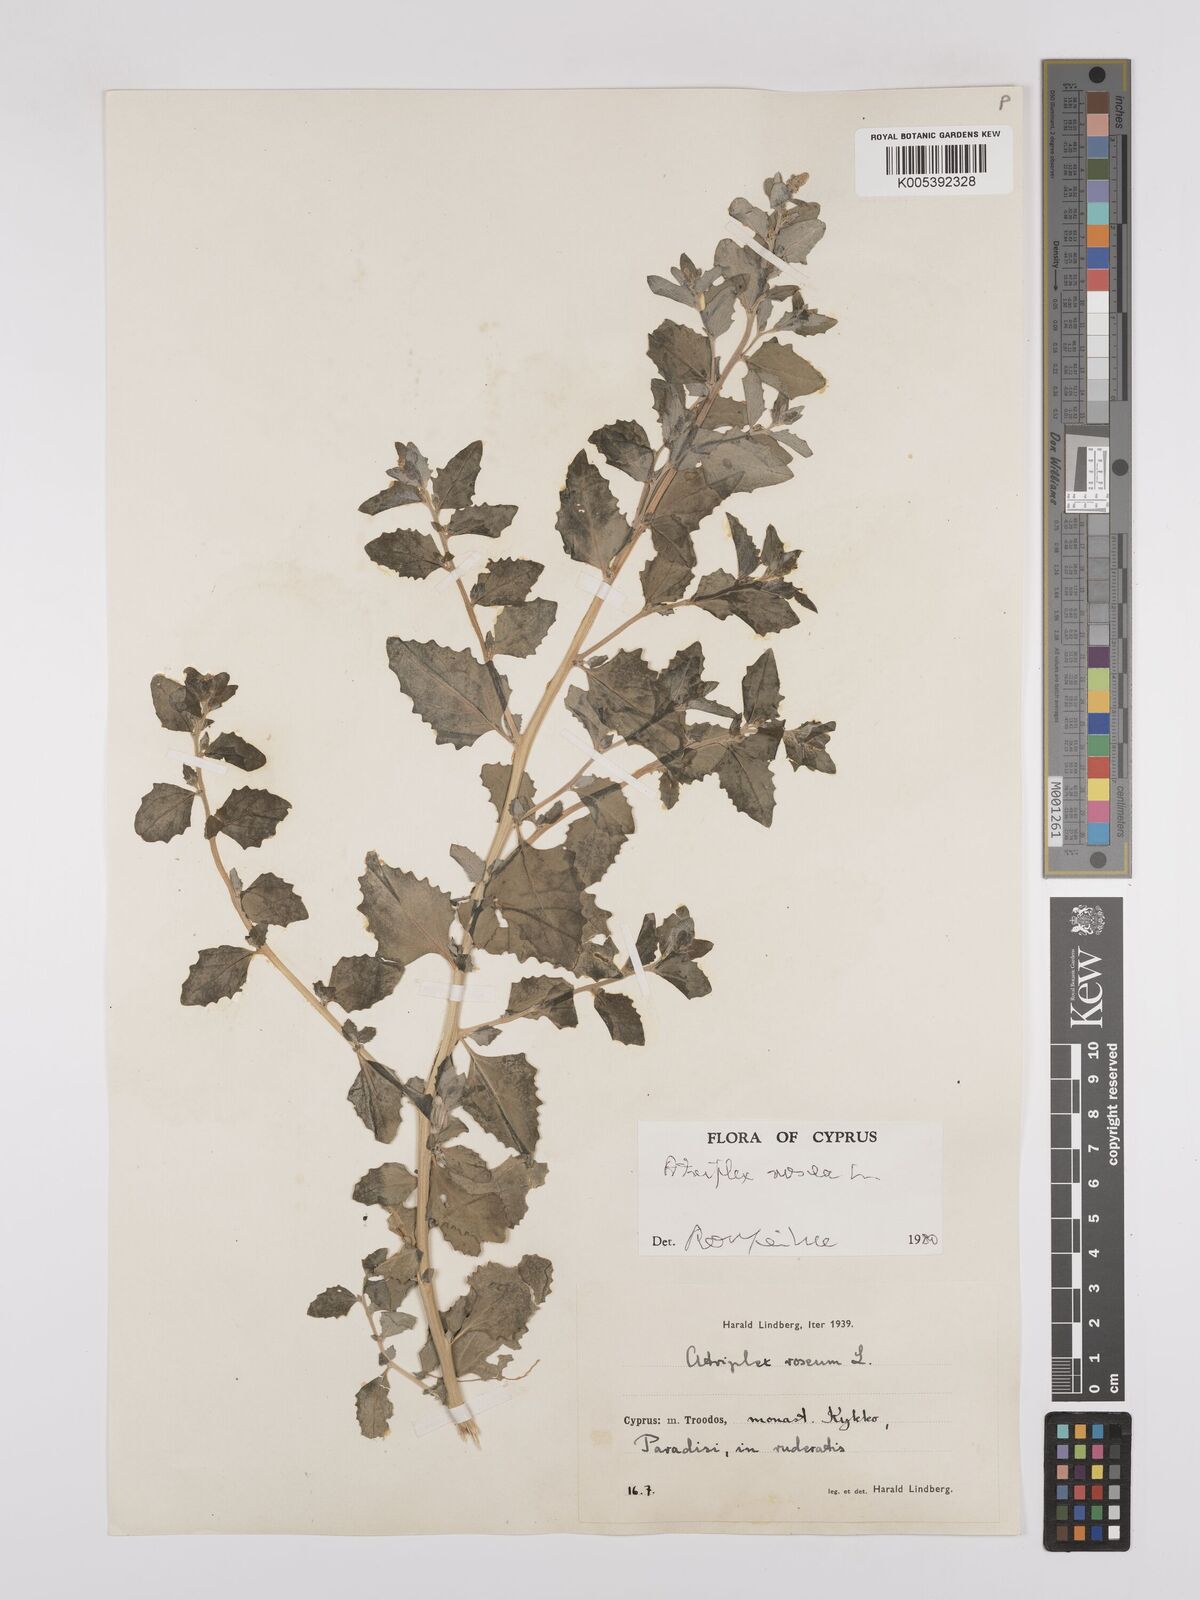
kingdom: Plantae
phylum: Tracheophyta
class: Magnoliopsida
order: Caryophyllales
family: Amaranthaceae
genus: Atriplex
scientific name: Atriplex
